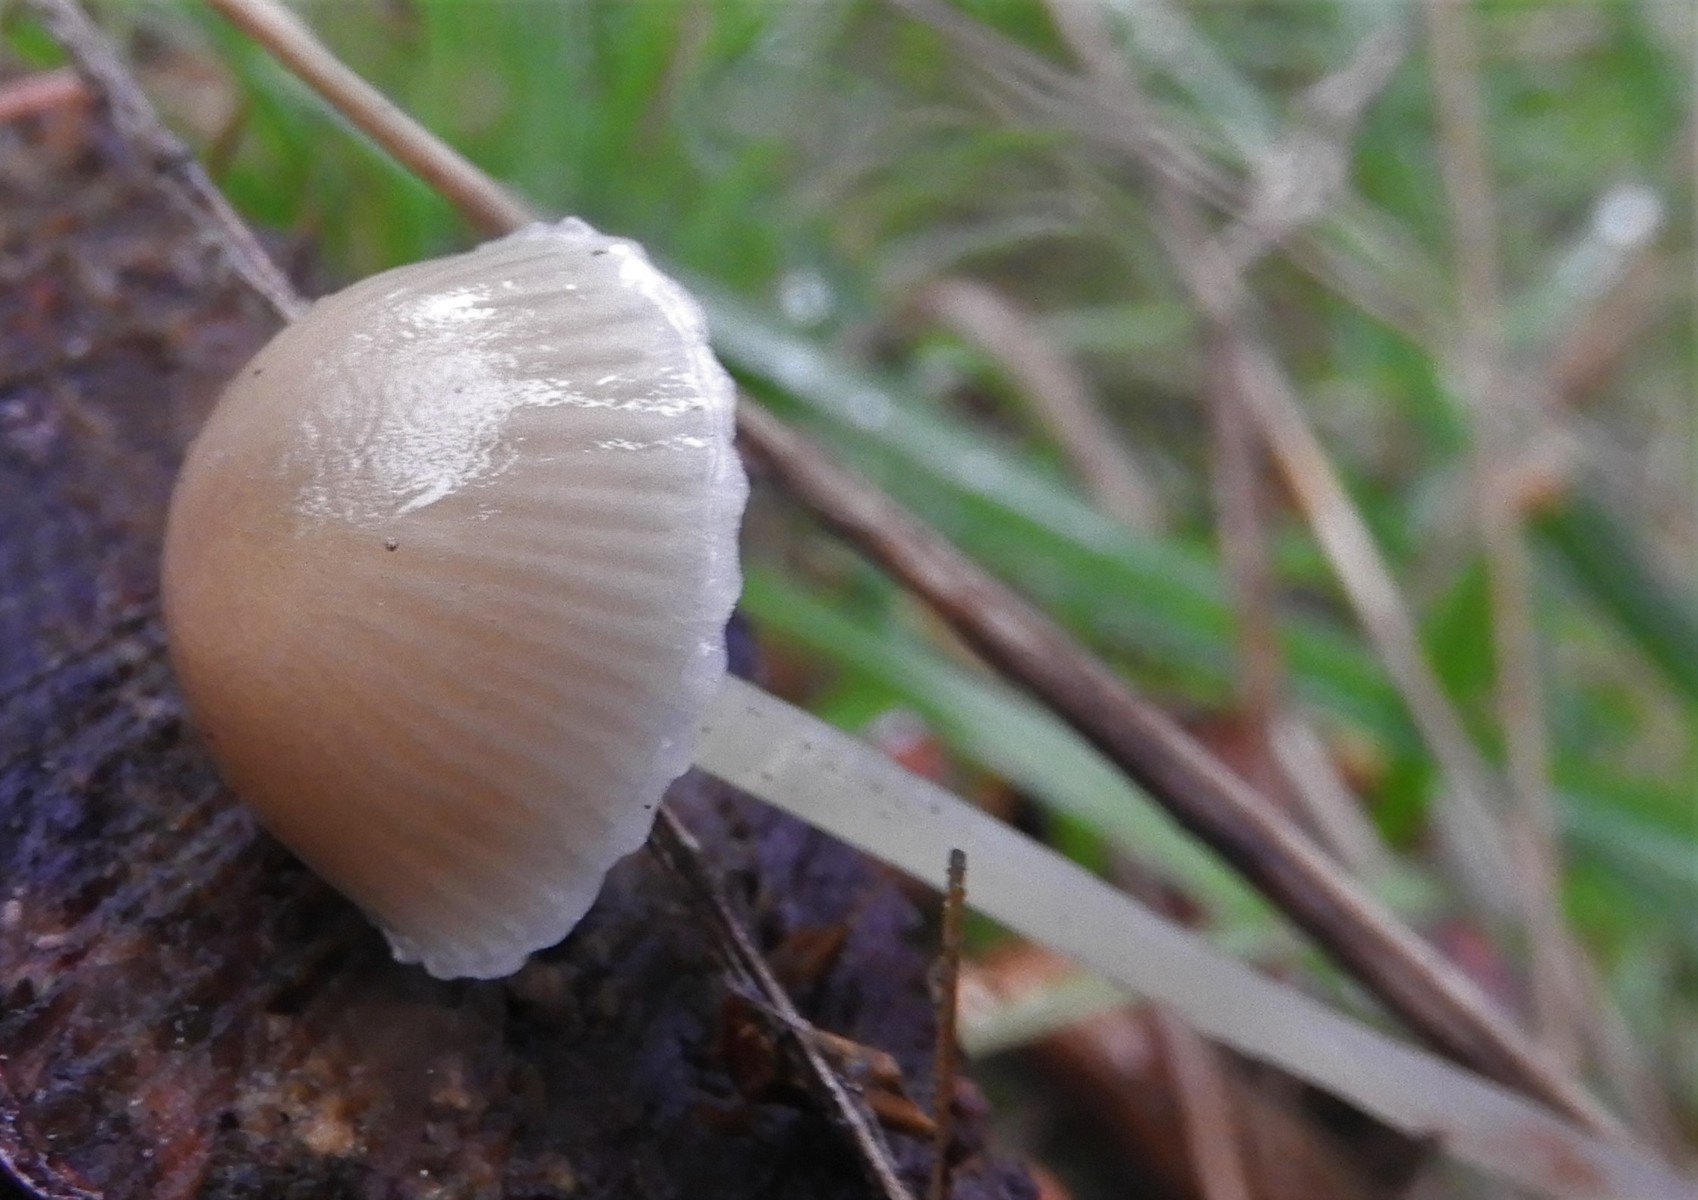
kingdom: Fungi
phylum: Basidiomycota
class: Agaricomycetes
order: Agaricales
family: Mycenaceae
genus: Mycena
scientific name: Mycena epipterygia
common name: gulstokket huesvamp
